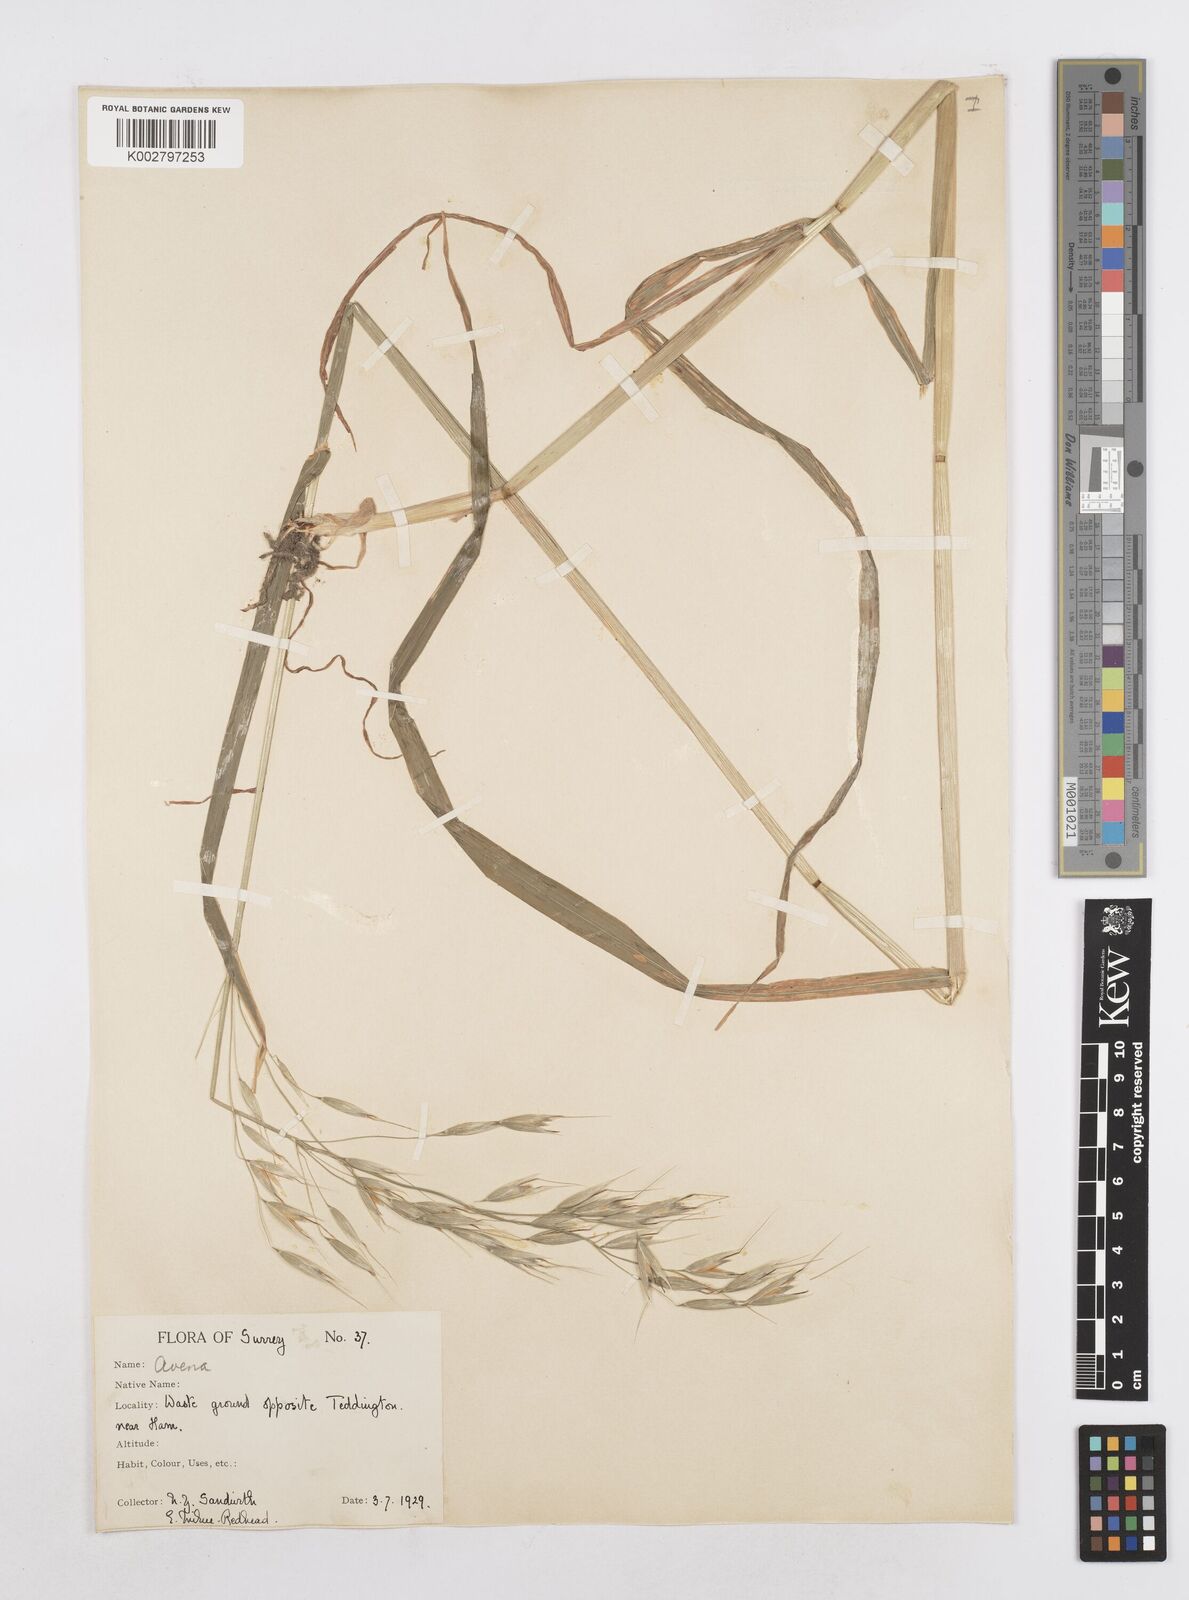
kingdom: Plantae
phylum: Tracheophyta
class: Liliopsida
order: Poales
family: Poaceae
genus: Avena
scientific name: Avena fatua
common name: Wild oat
